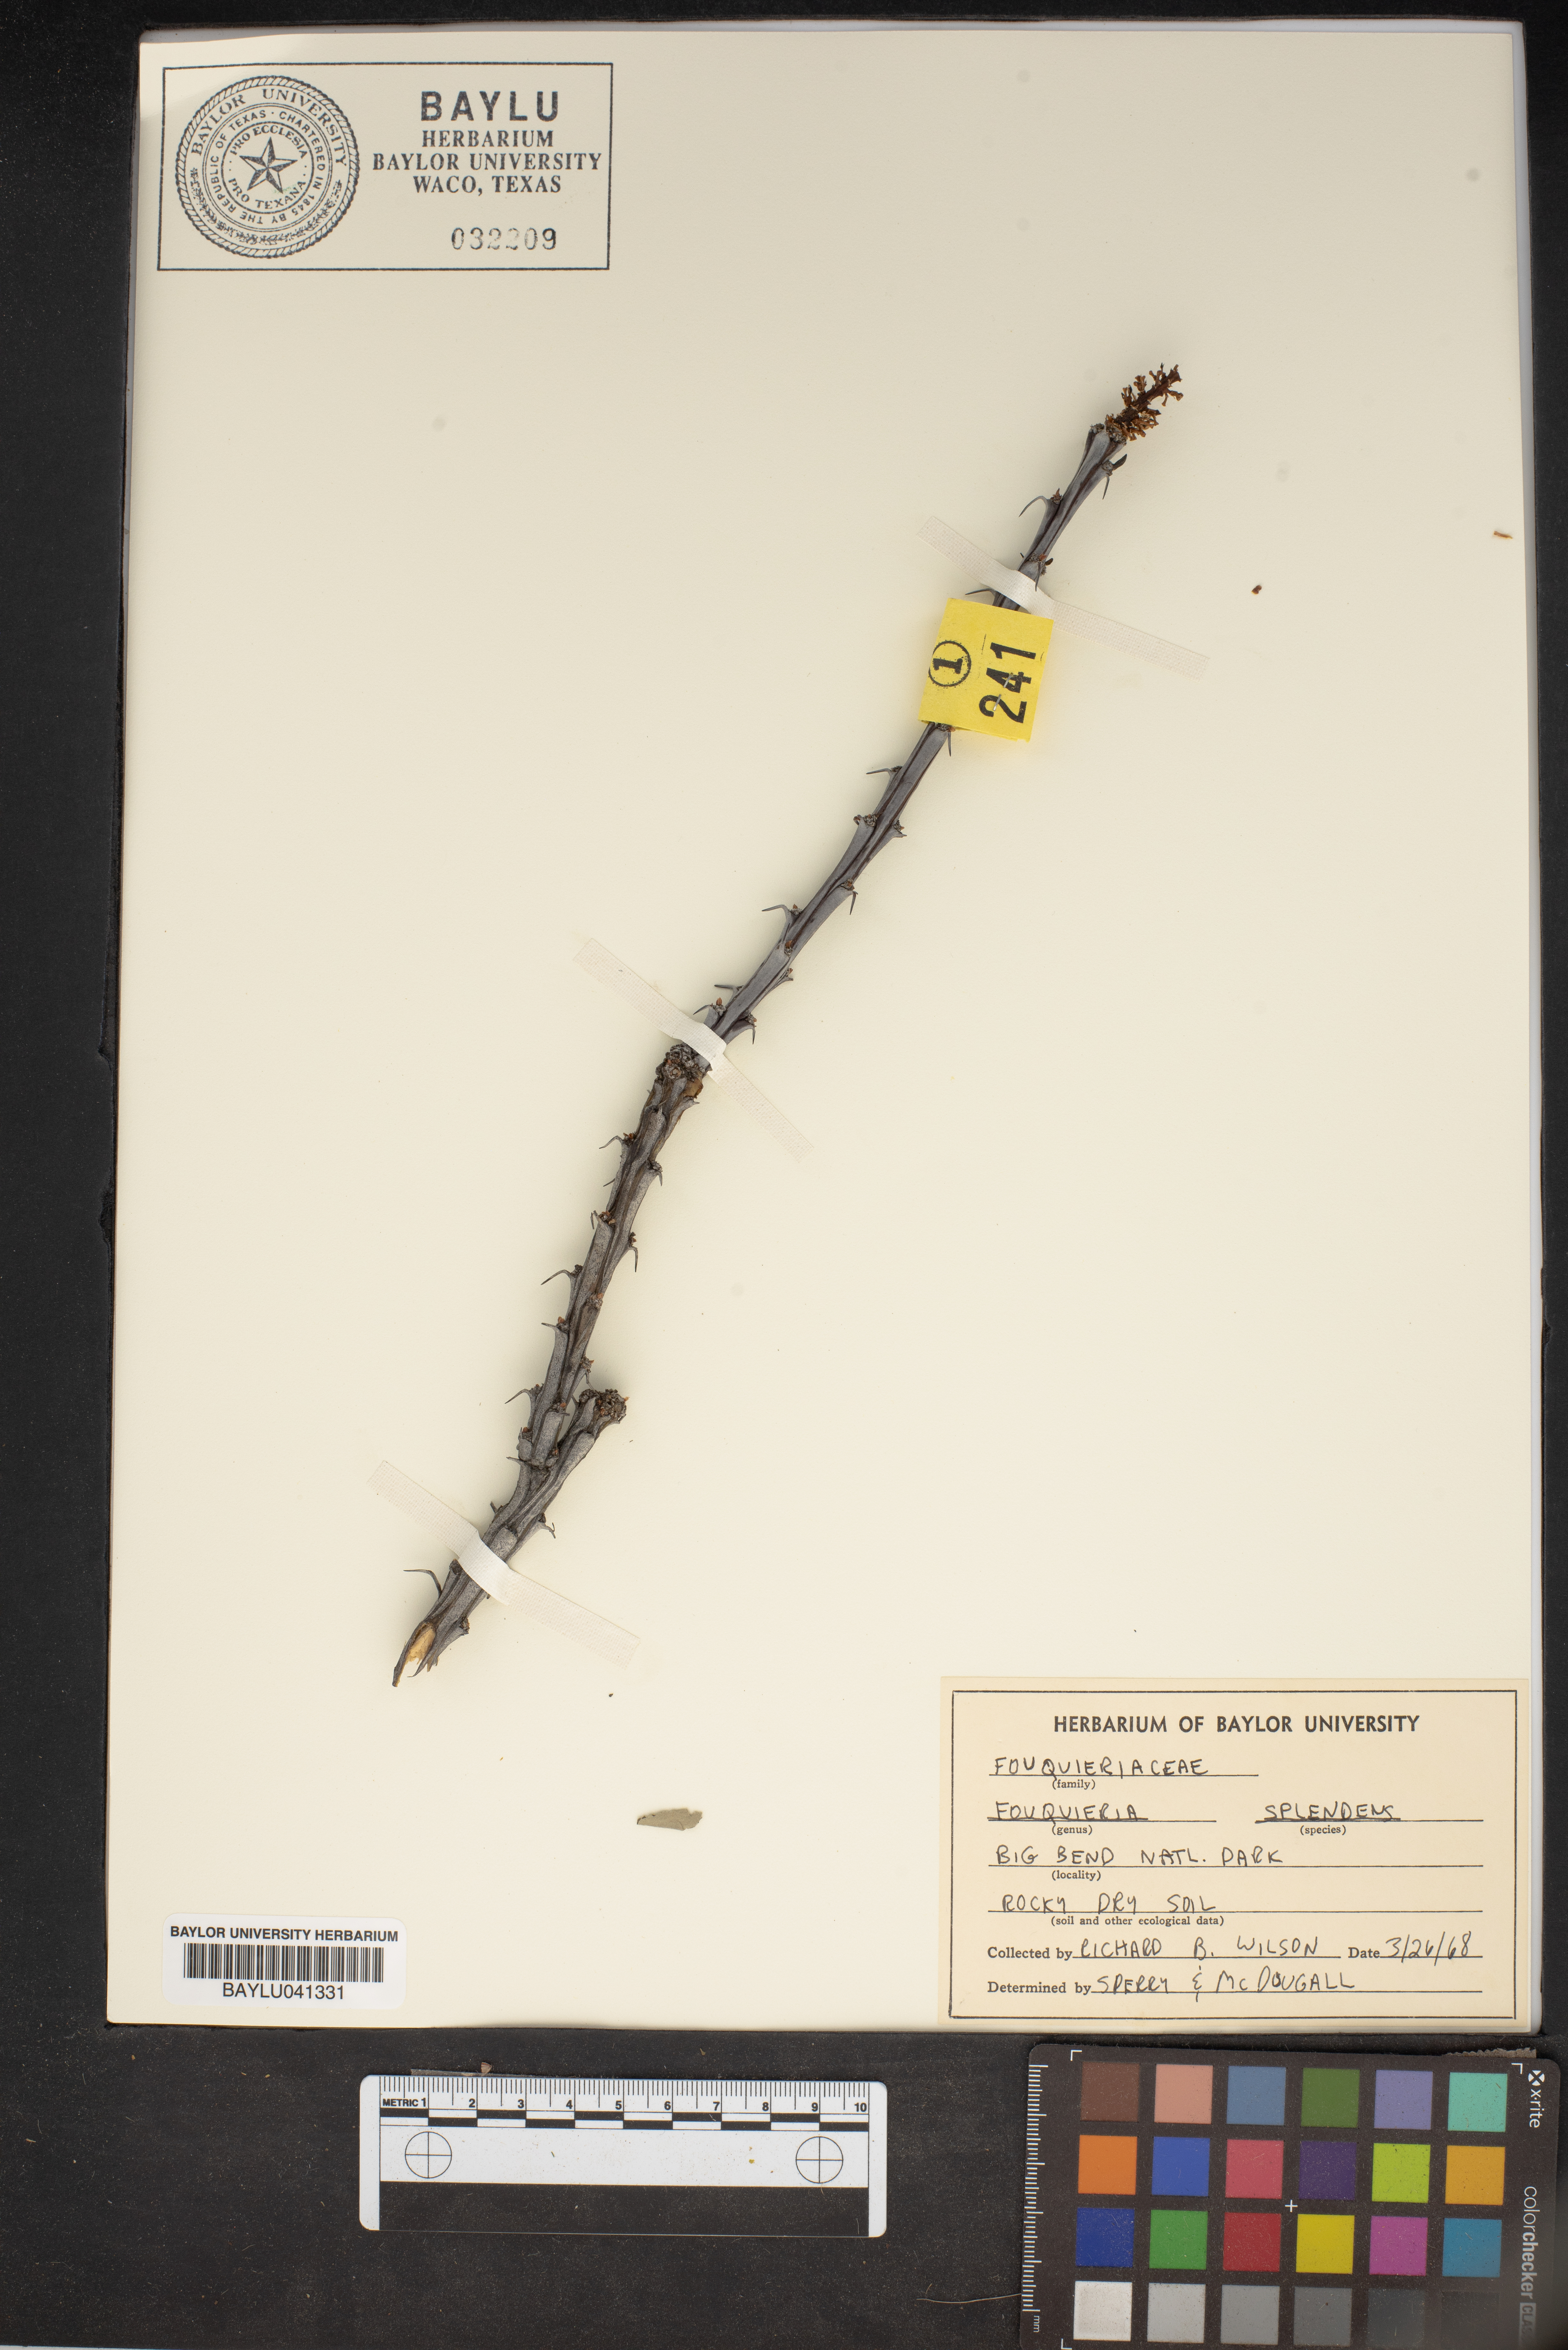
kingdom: Plantae
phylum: Tracheophyta
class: Magnoliopsida
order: Ericales
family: Fouquieriaceae
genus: Fouquieria
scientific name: Fouquieria splendens
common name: Vine-cactus
